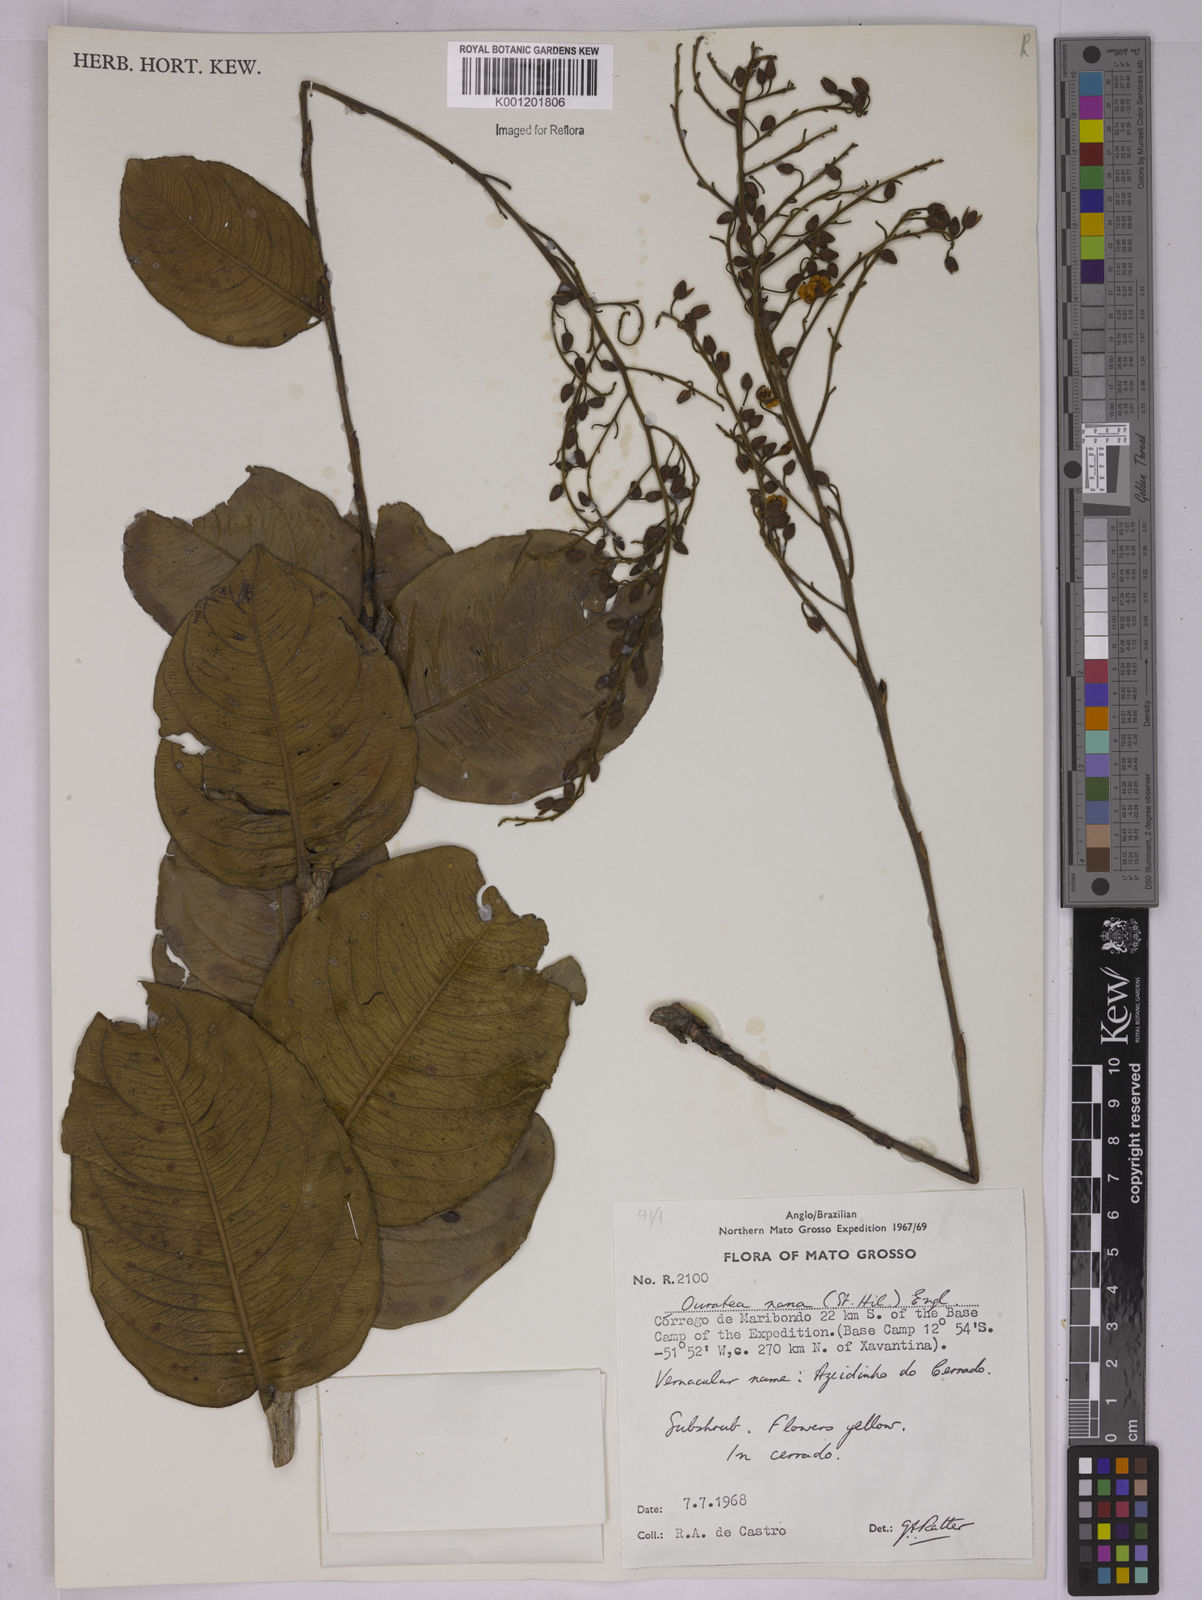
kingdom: Plantae
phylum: Tracheophyta
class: Magnoliopsida
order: Malpighiales
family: Ochnaceae
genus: Ouratea
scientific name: Ouratea nana
